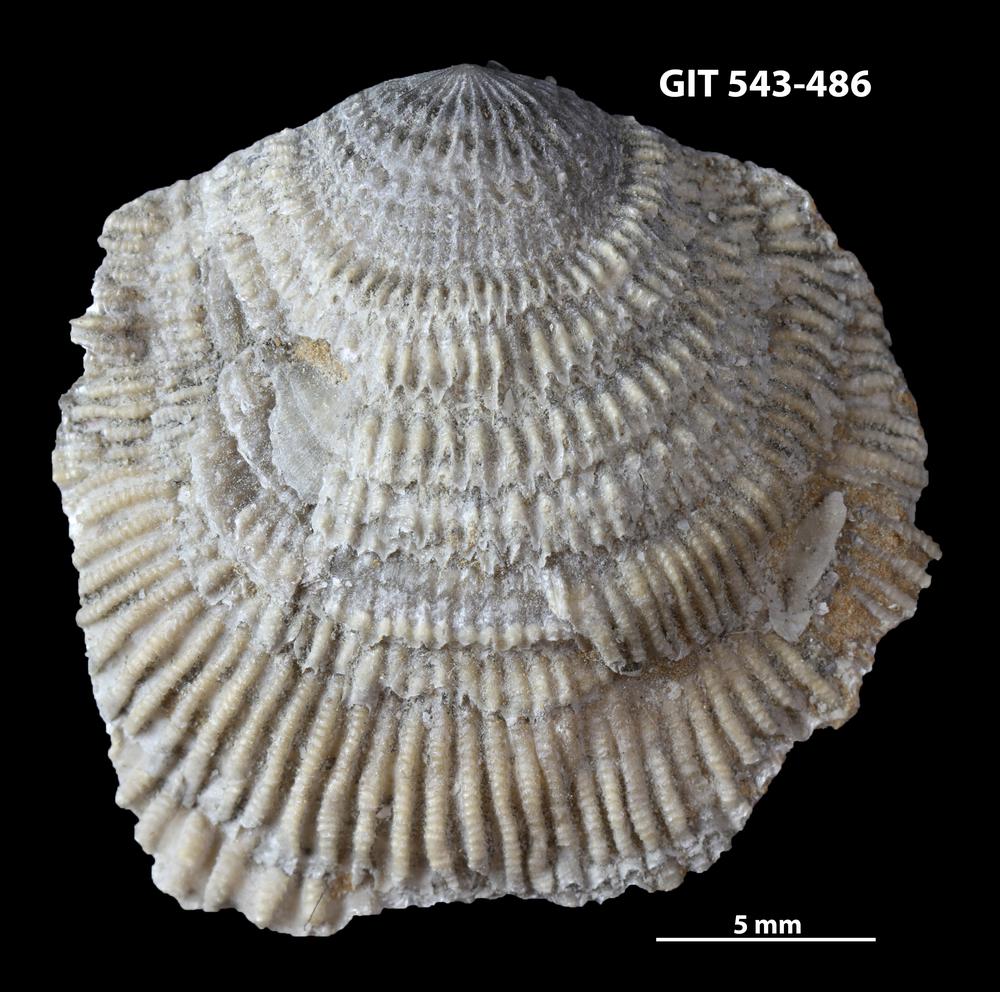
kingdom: Animalia
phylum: Brachiopoda
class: Rhynchonellata
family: Clitambonitidae
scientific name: Clitambonitidae
